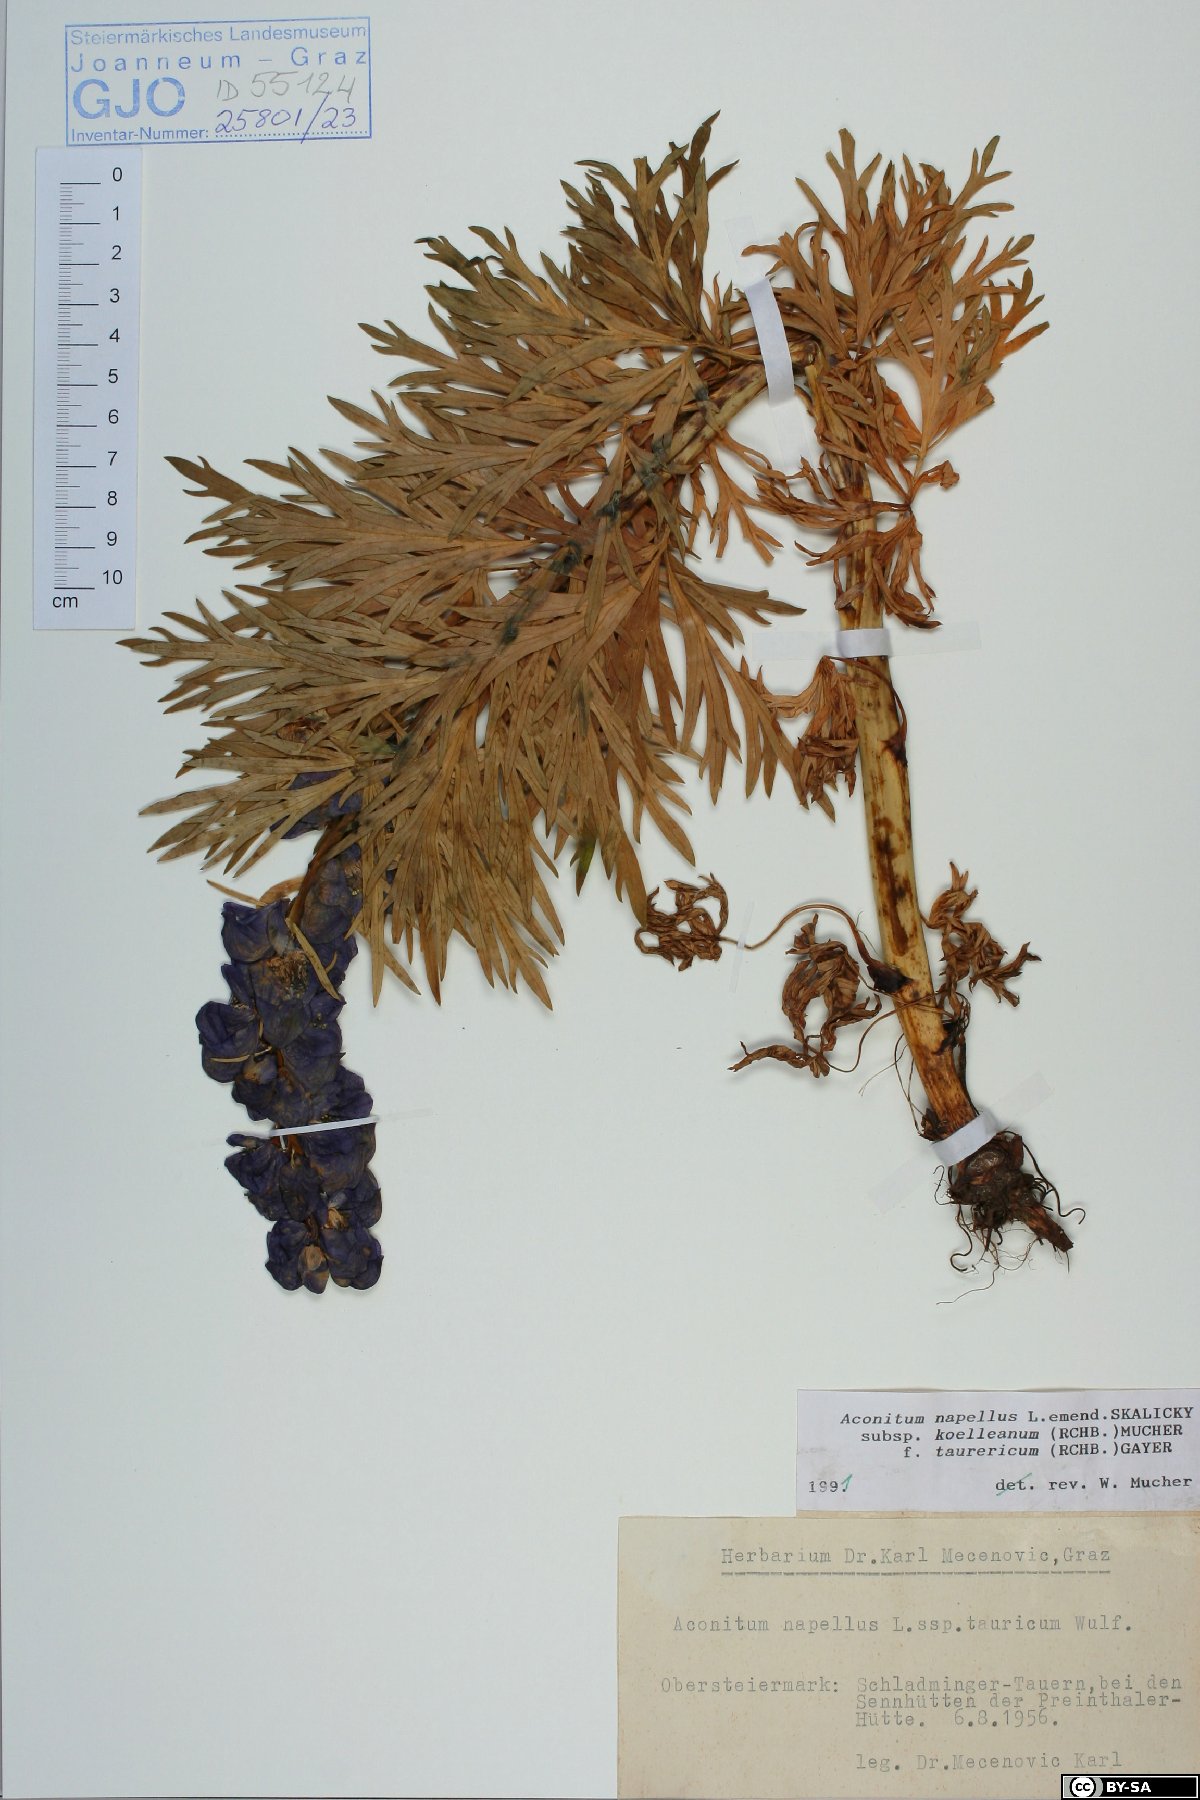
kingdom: Plantae
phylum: Tracheophyta
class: Magnoliopsida
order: Ranunculales
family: Ranunculaceae
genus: Aconitum
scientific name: Aconitum tauricum
